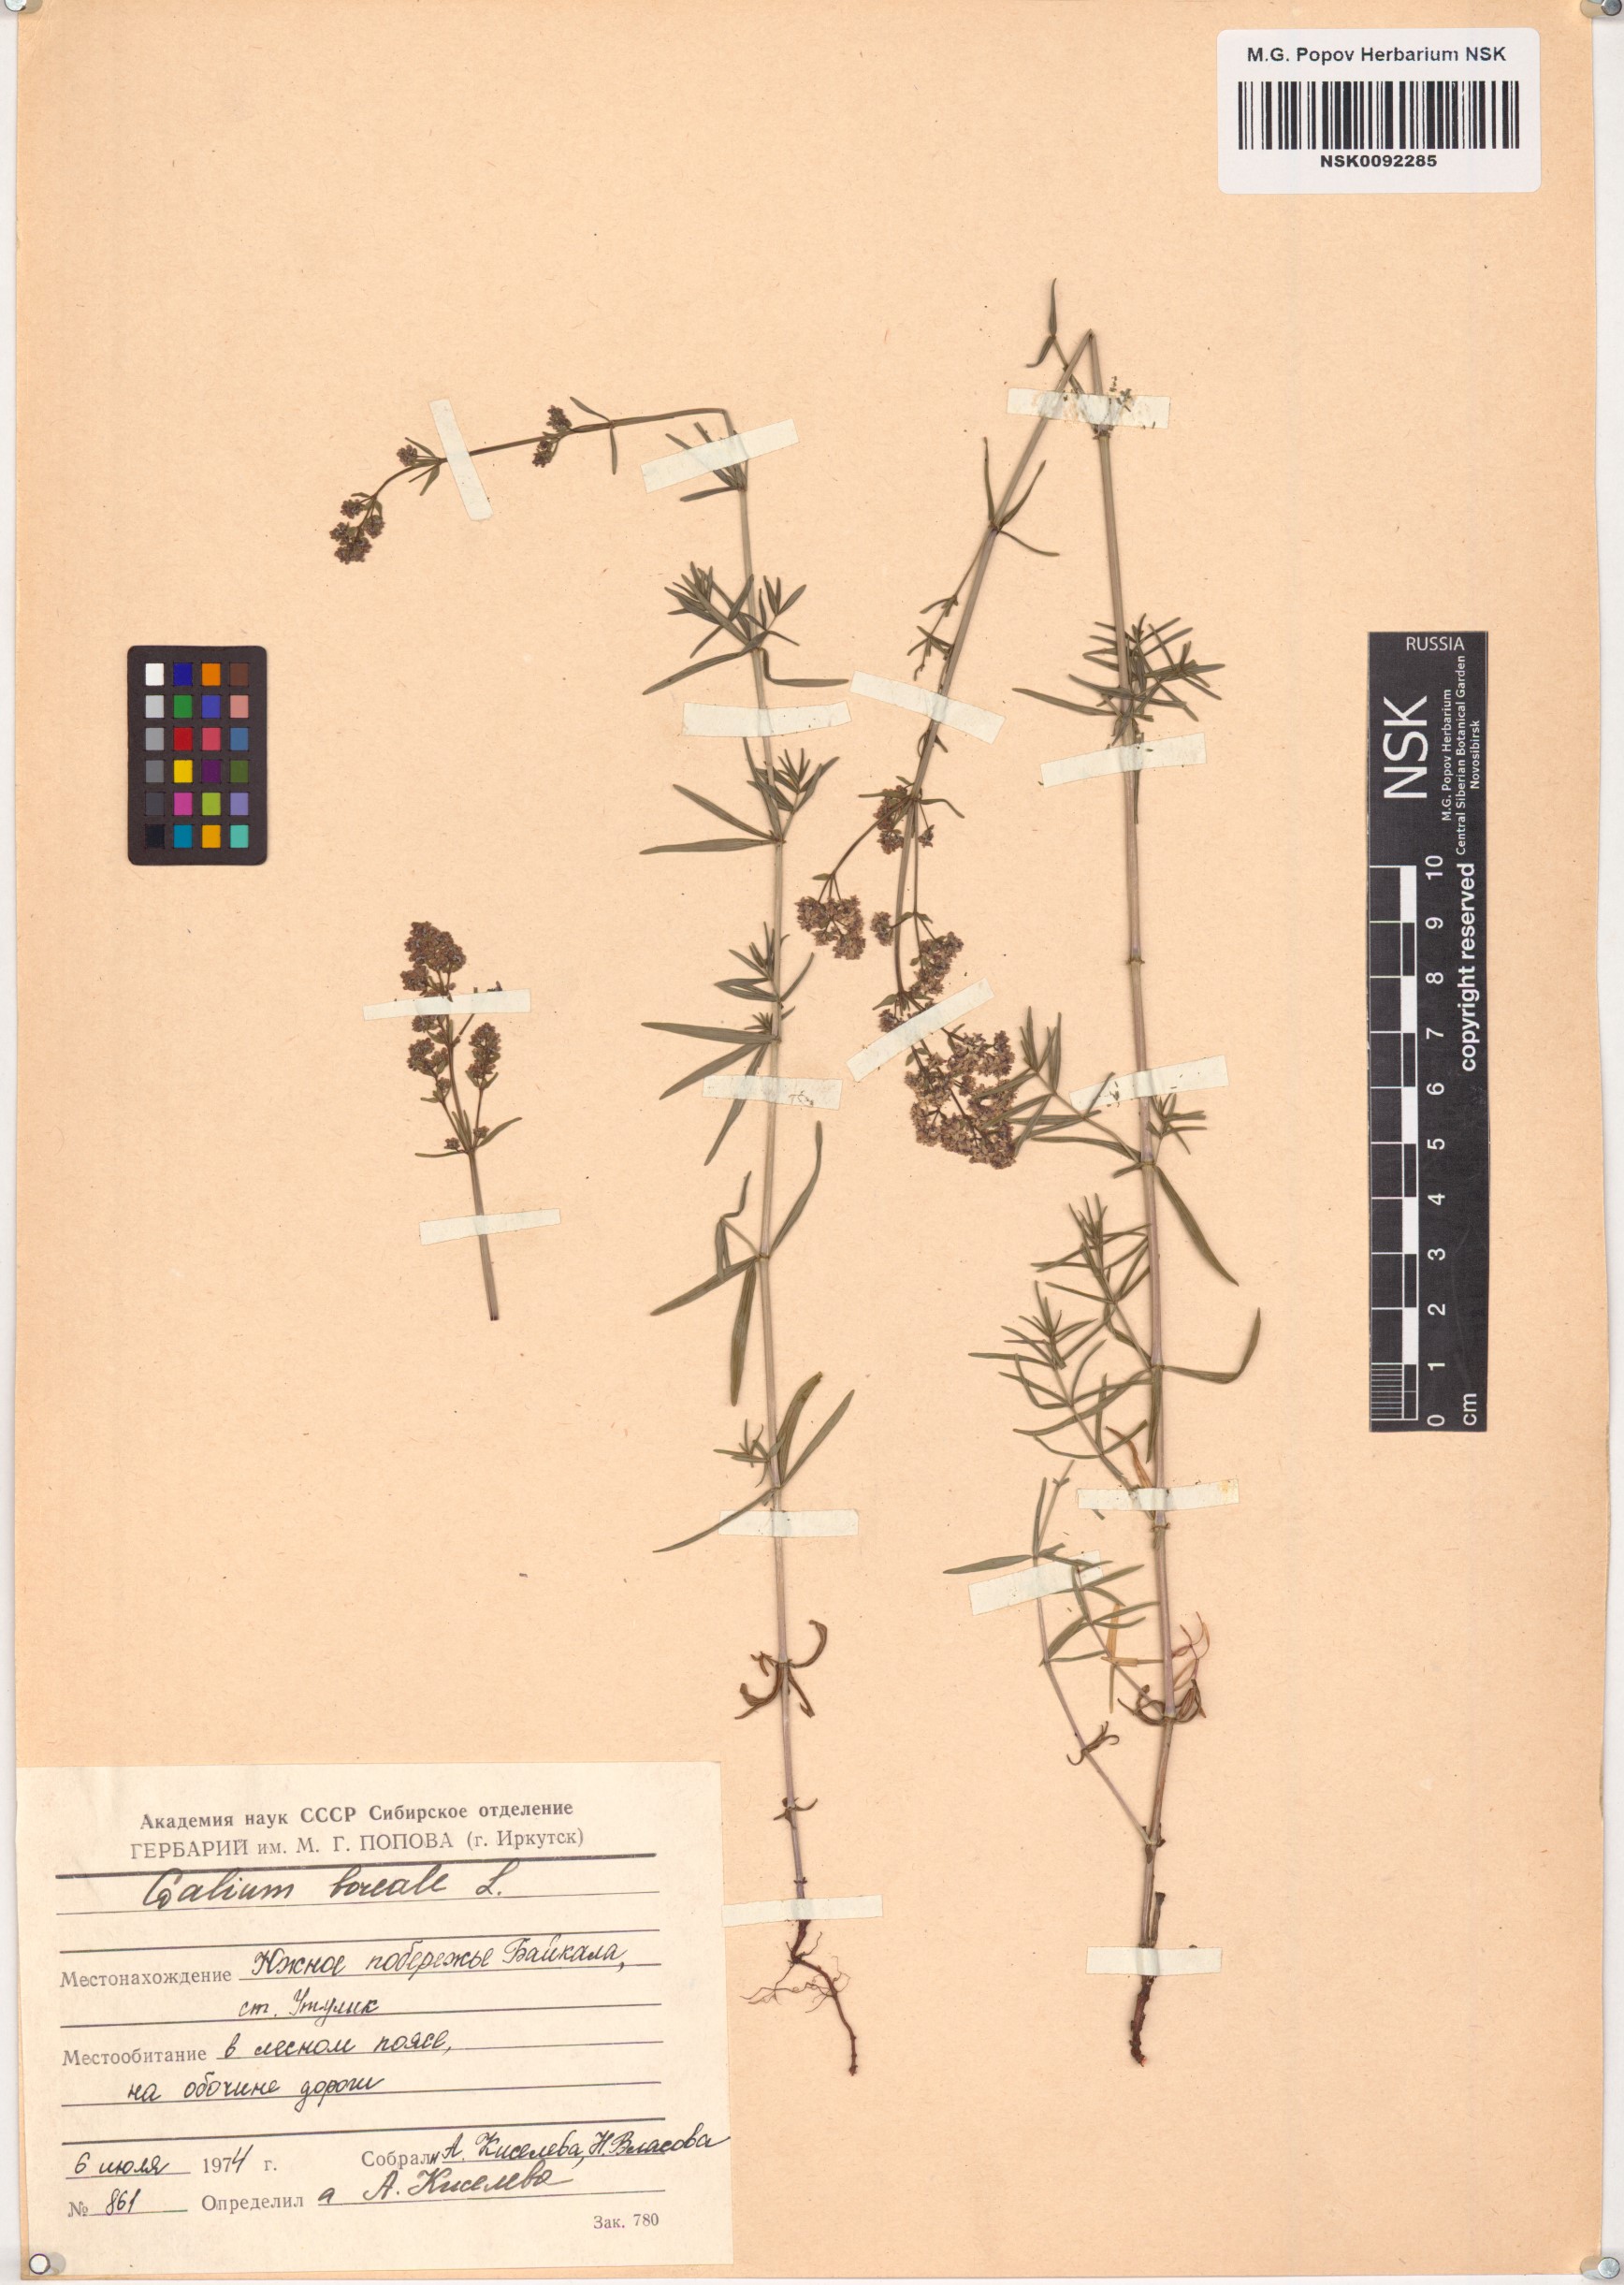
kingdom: Plantae
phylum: Tracheophyta
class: Magnoliopsida
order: Gentianales
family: Rubiaceae
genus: Galium
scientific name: Galium boreale
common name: Northern bedstraw
